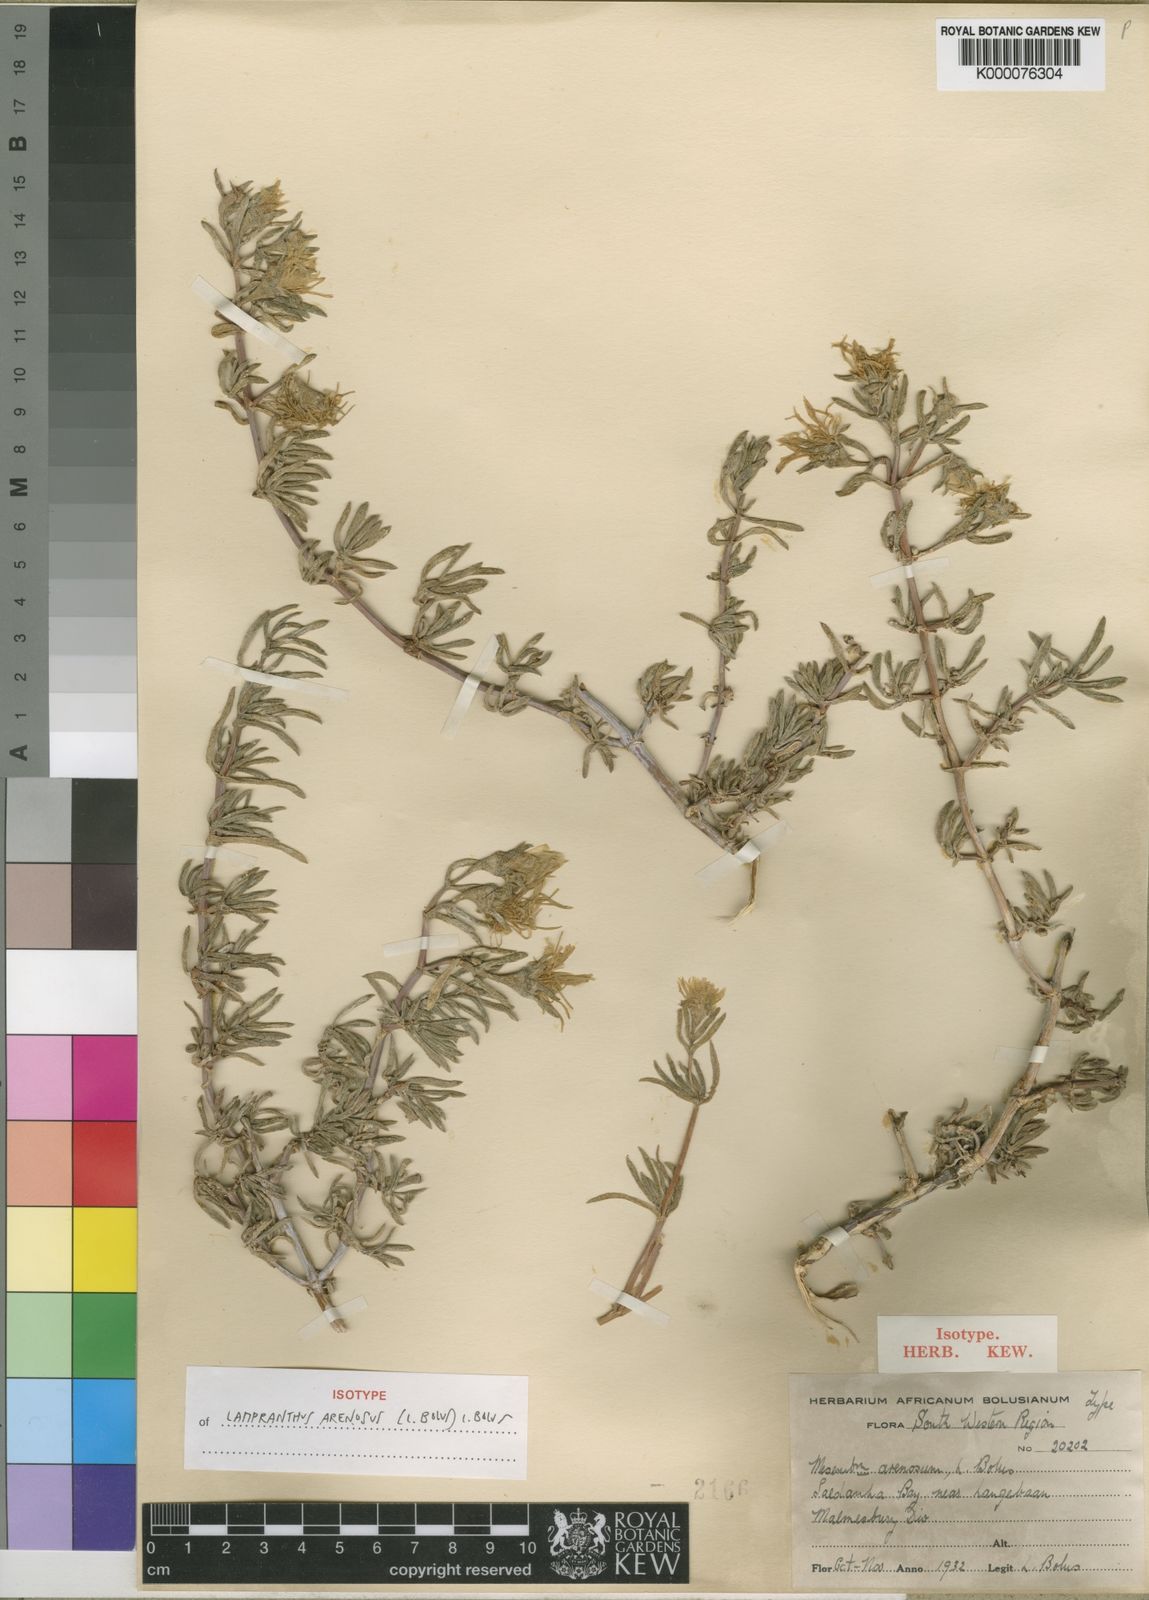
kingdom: Plantae
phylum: Tracheophyta
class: Magnoliopsida
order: Caryophyllales
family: Aizoaceae
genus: Lampranthus
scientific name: Lampranthus arenarius
